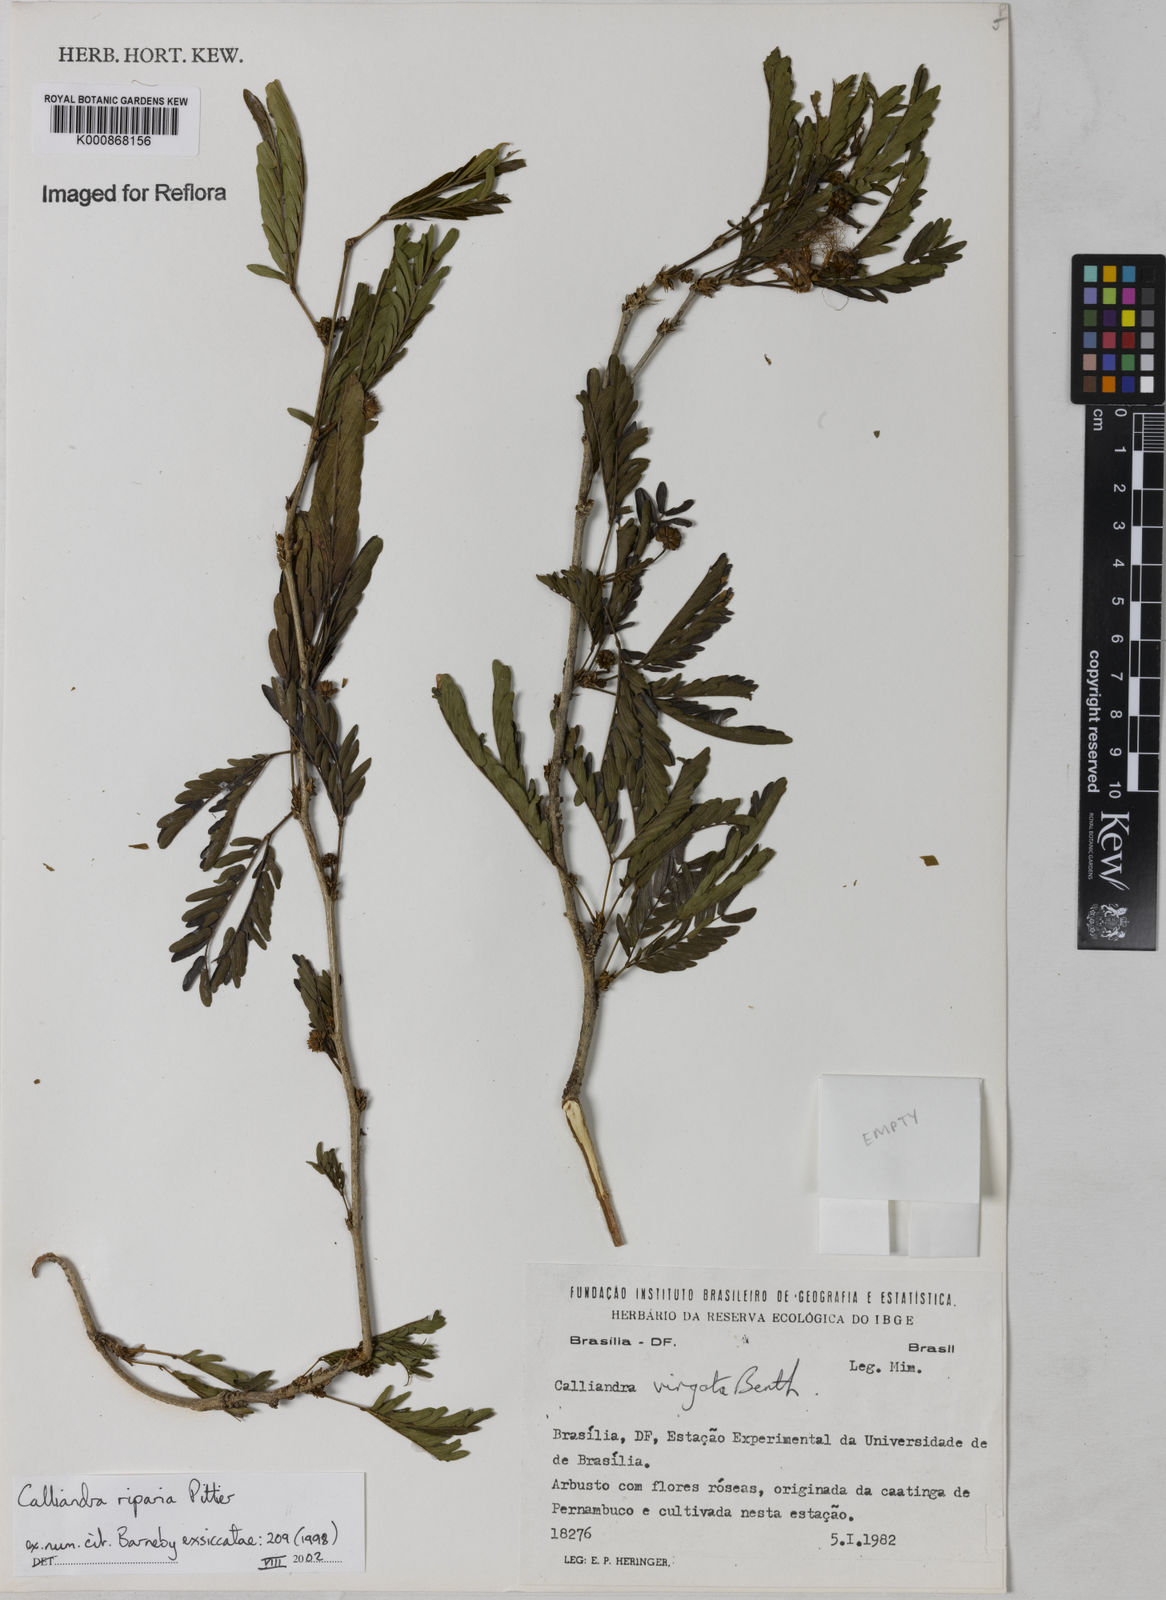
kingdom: Plantae
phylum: Tracheophyta
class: Magnoliopsida
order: Fabales
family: Fabaceae
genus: Calliandra
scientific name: Calliandra riparia
